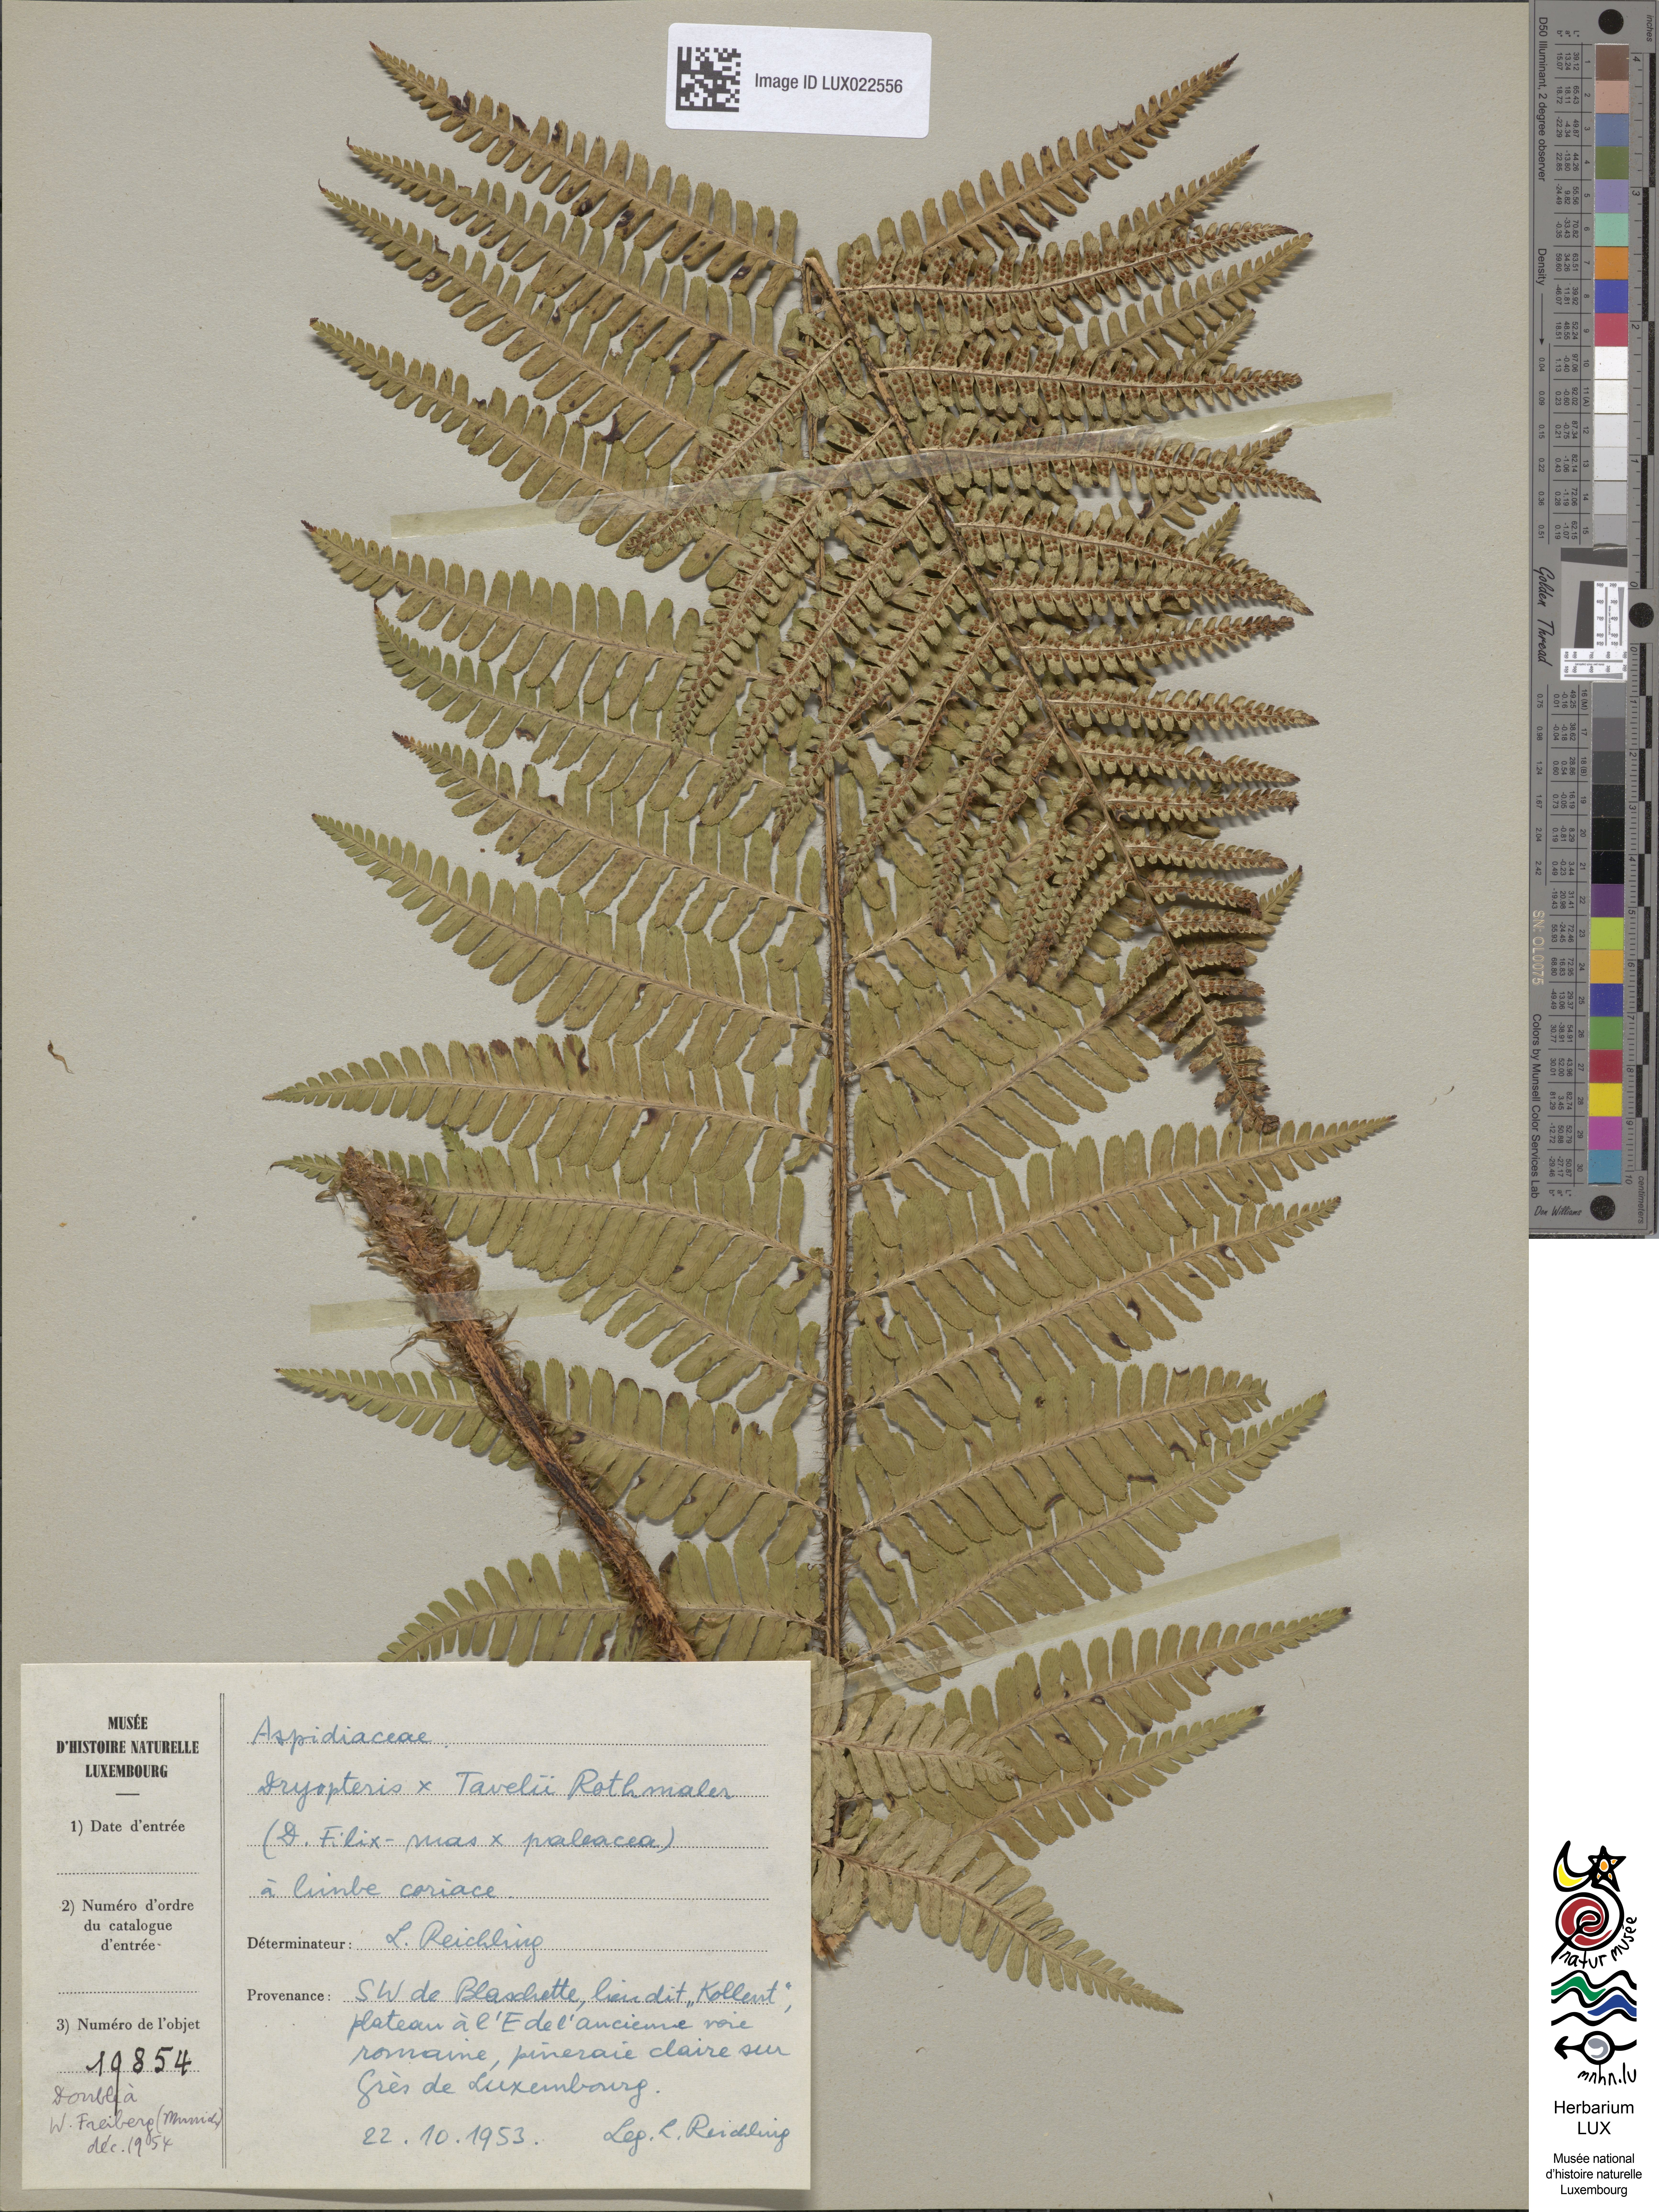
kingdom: Plantae
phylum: Tracheophyta
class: Polypodiopsida
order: Polypodiales
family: Dryopteridaceae
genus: Dryopteris
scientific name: Dryopteris borreri
